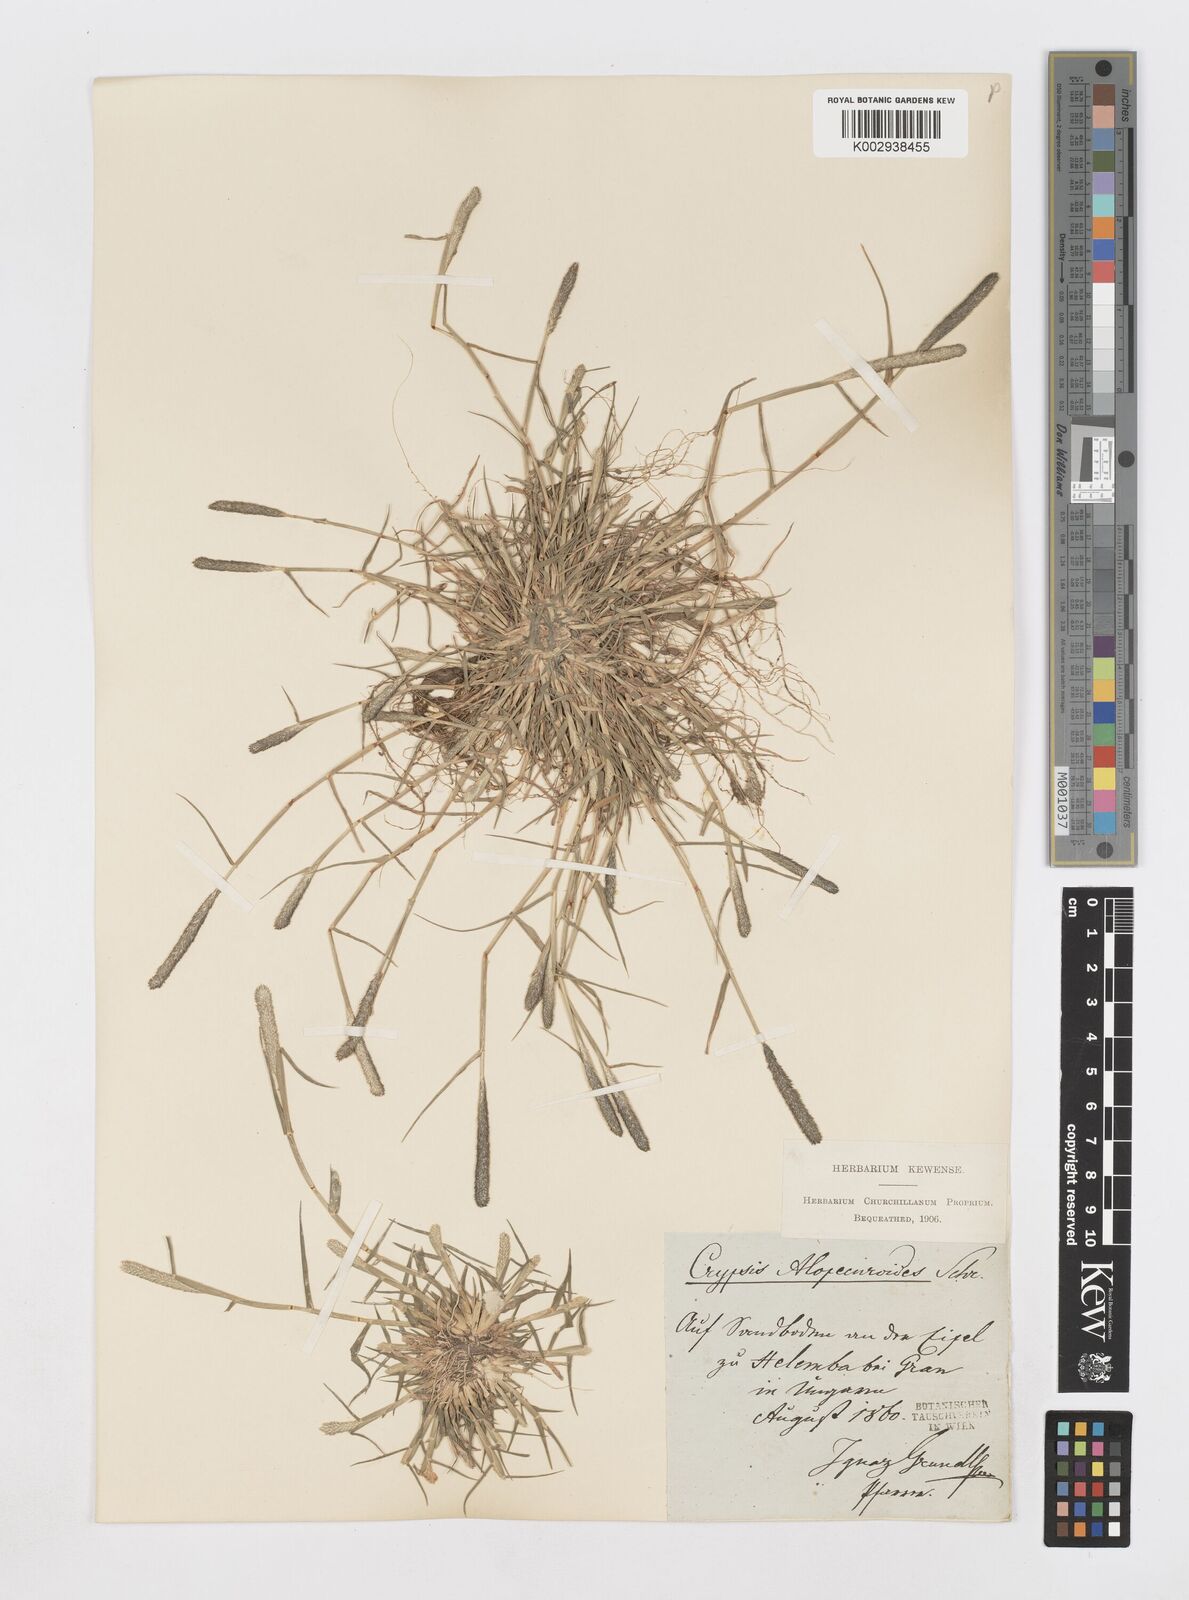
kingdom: Plantae
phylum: Tracheophyta
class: Liliopsida
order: Poales
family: Poaceae
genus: Sporobolus
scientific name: Sporobolus alopecuroides
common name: Foxtail pricklegrass
